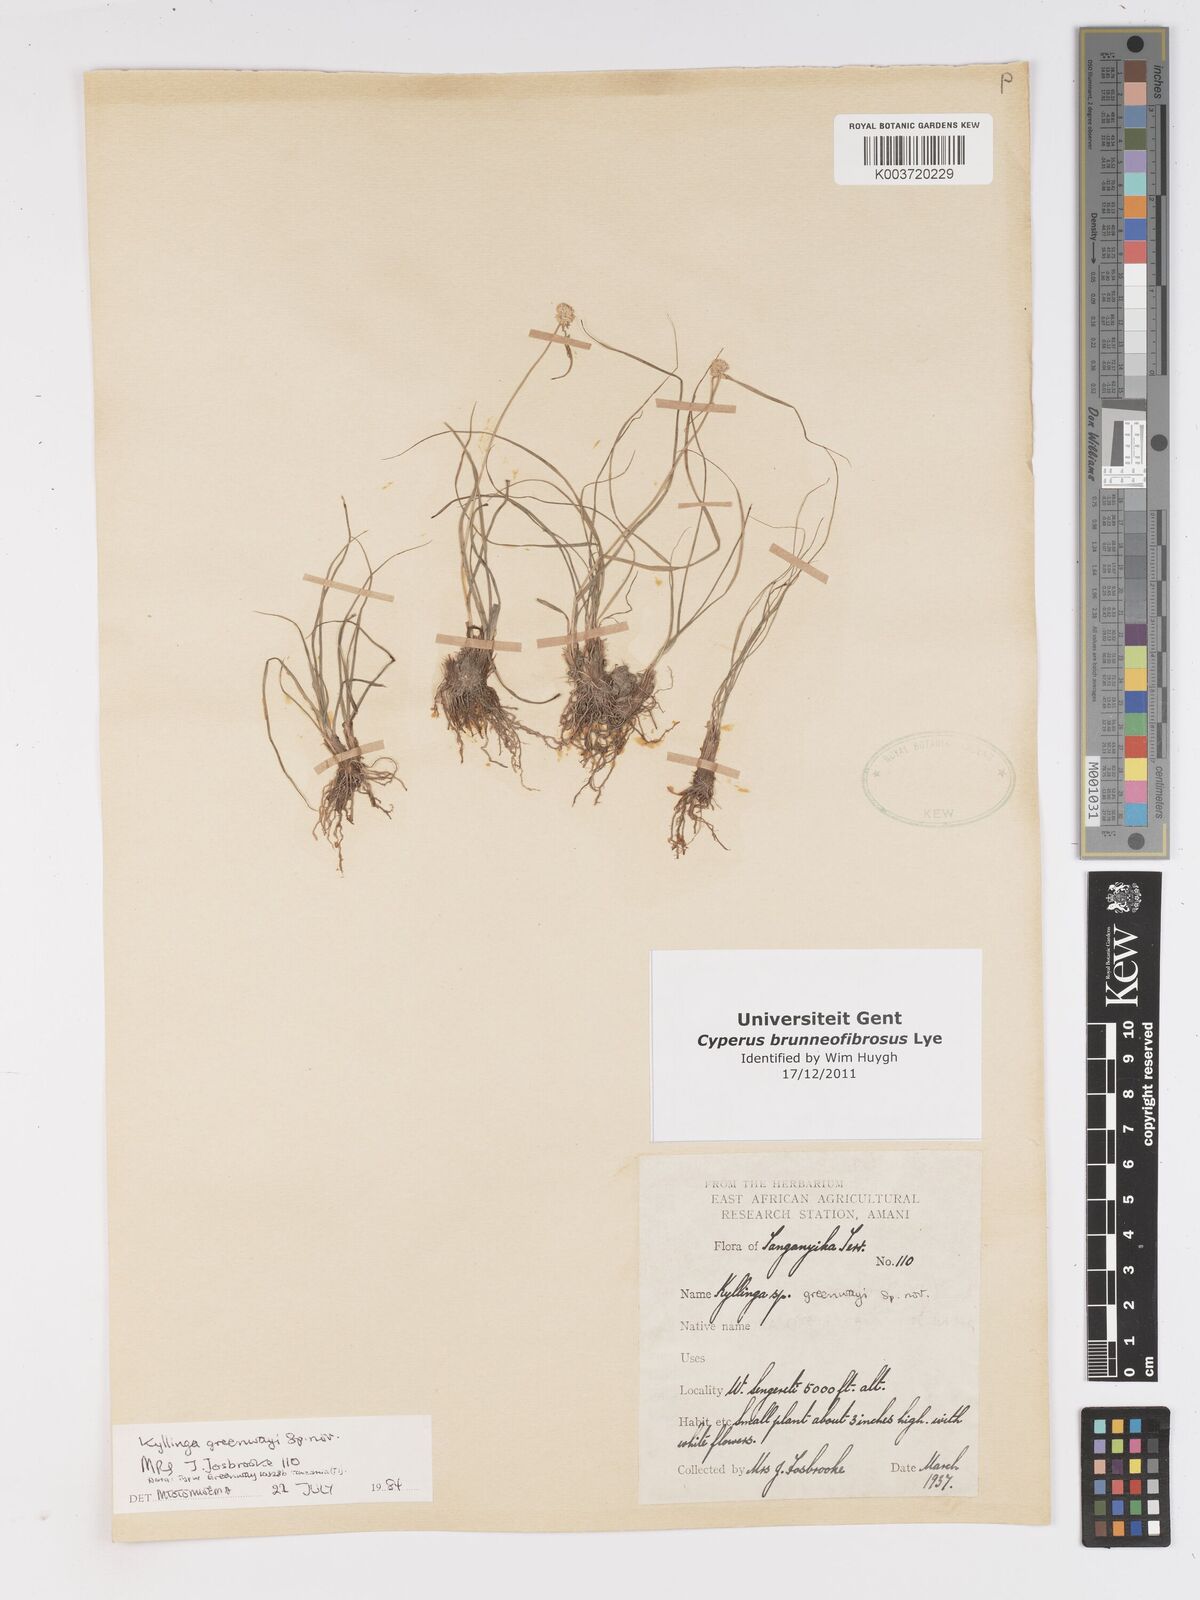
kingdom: Plantae
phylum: Tracheophyta
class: Liliopsida
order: Poales
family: Cyperaceae
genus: Cyperus
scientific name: Cyperus brunneofibrosus
